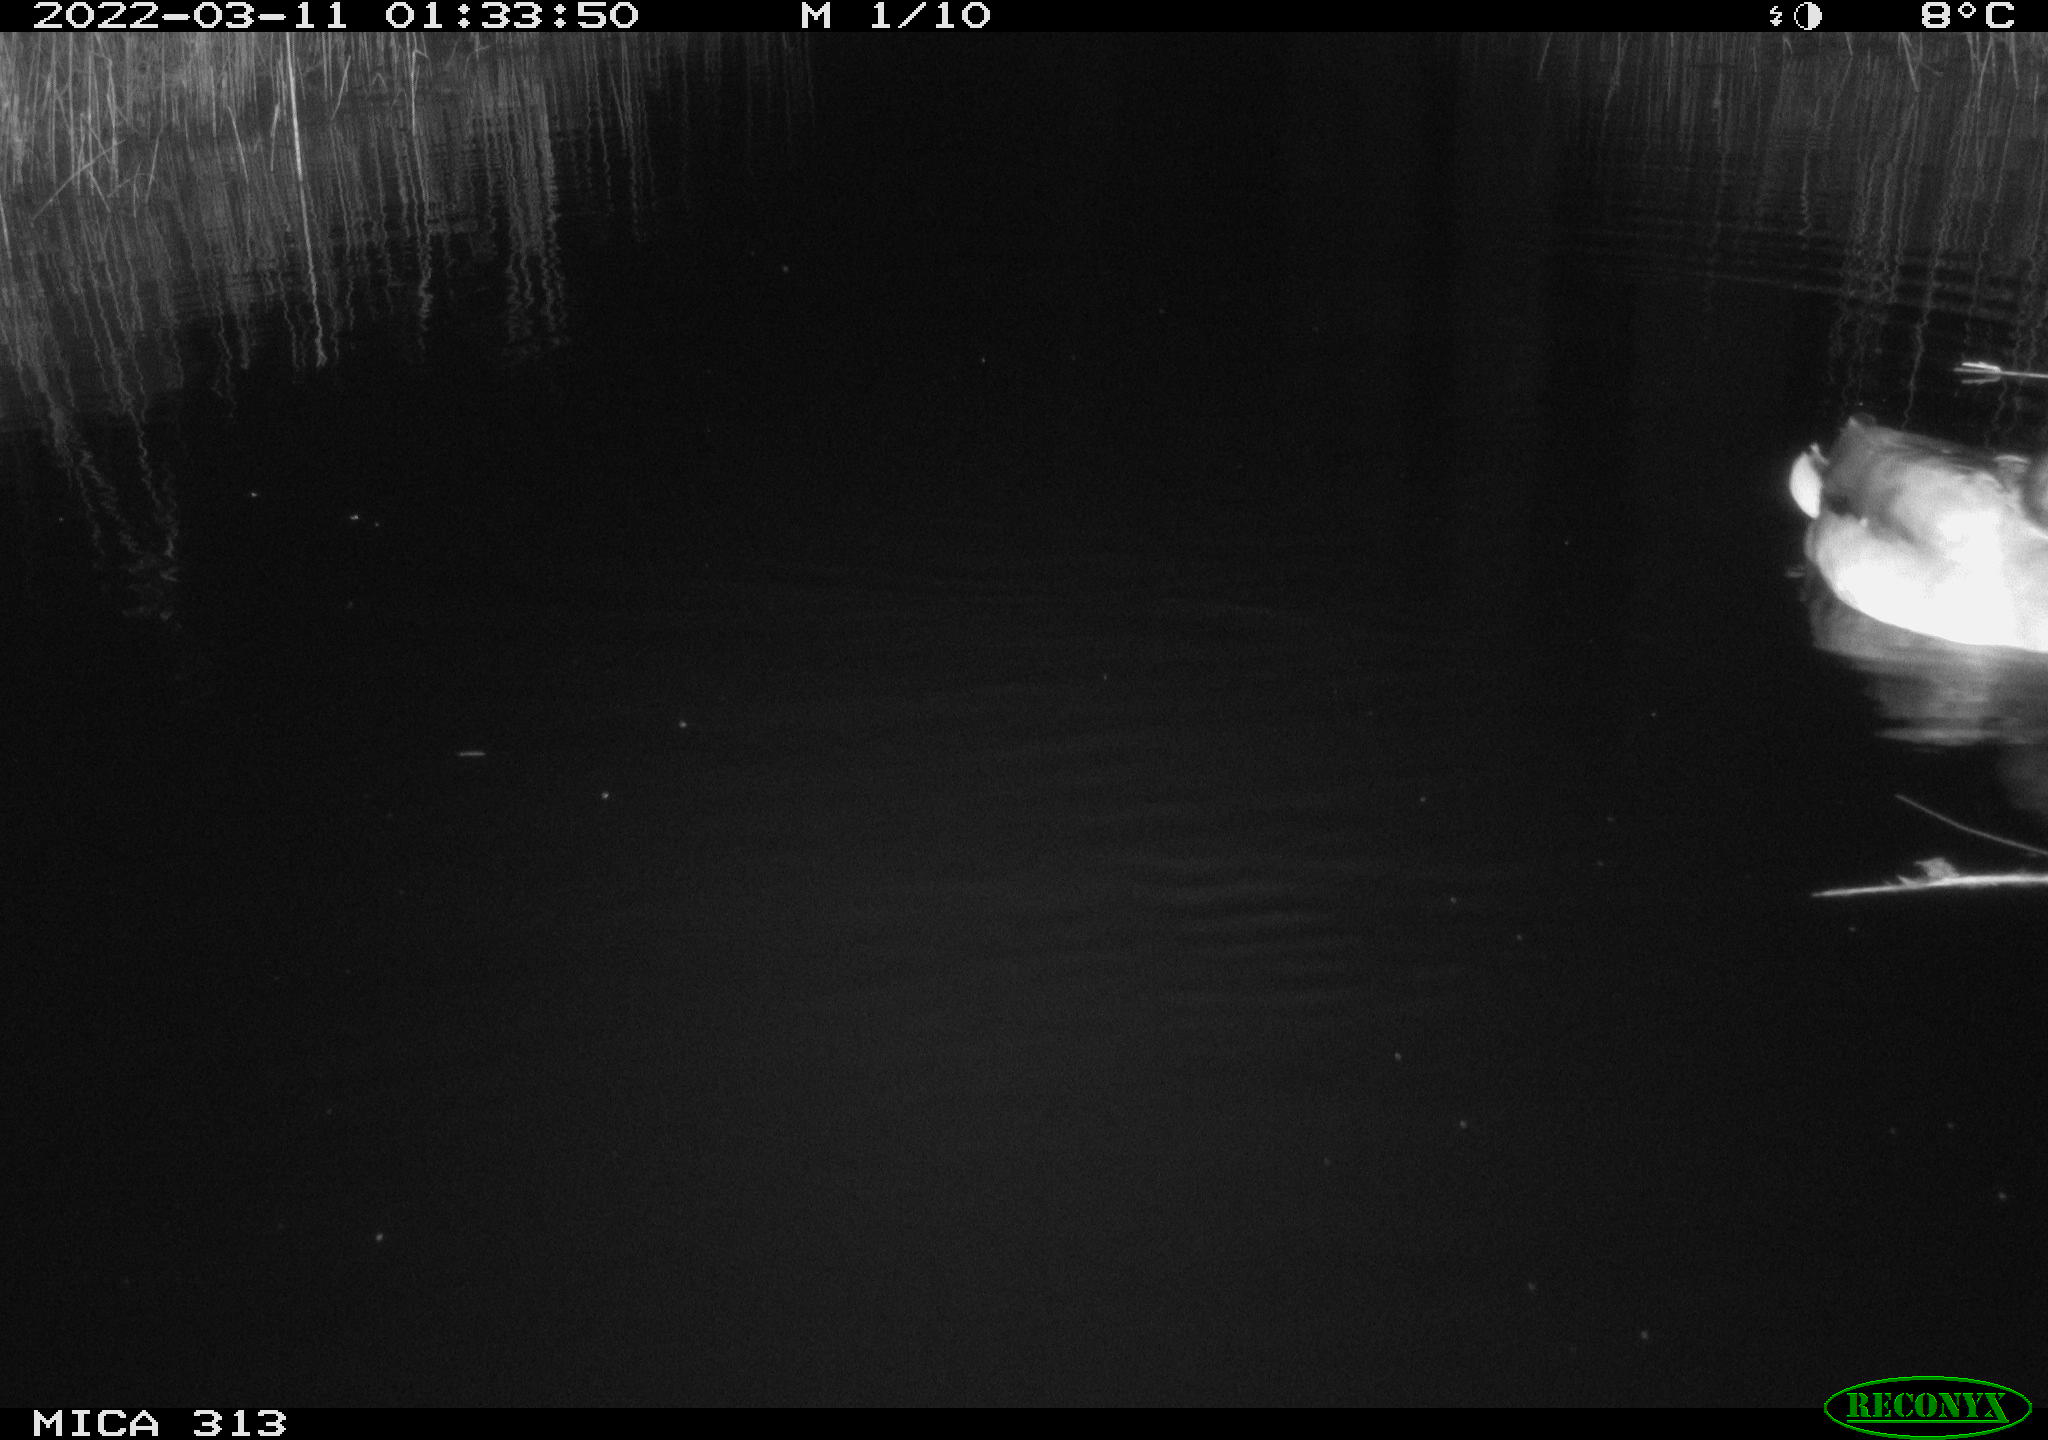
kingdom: Animalia
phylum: Chordata
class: Aves
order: Anseriformes
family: Anatidae
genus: Anas
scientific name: Anas platyrhynchos
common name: Mallard
